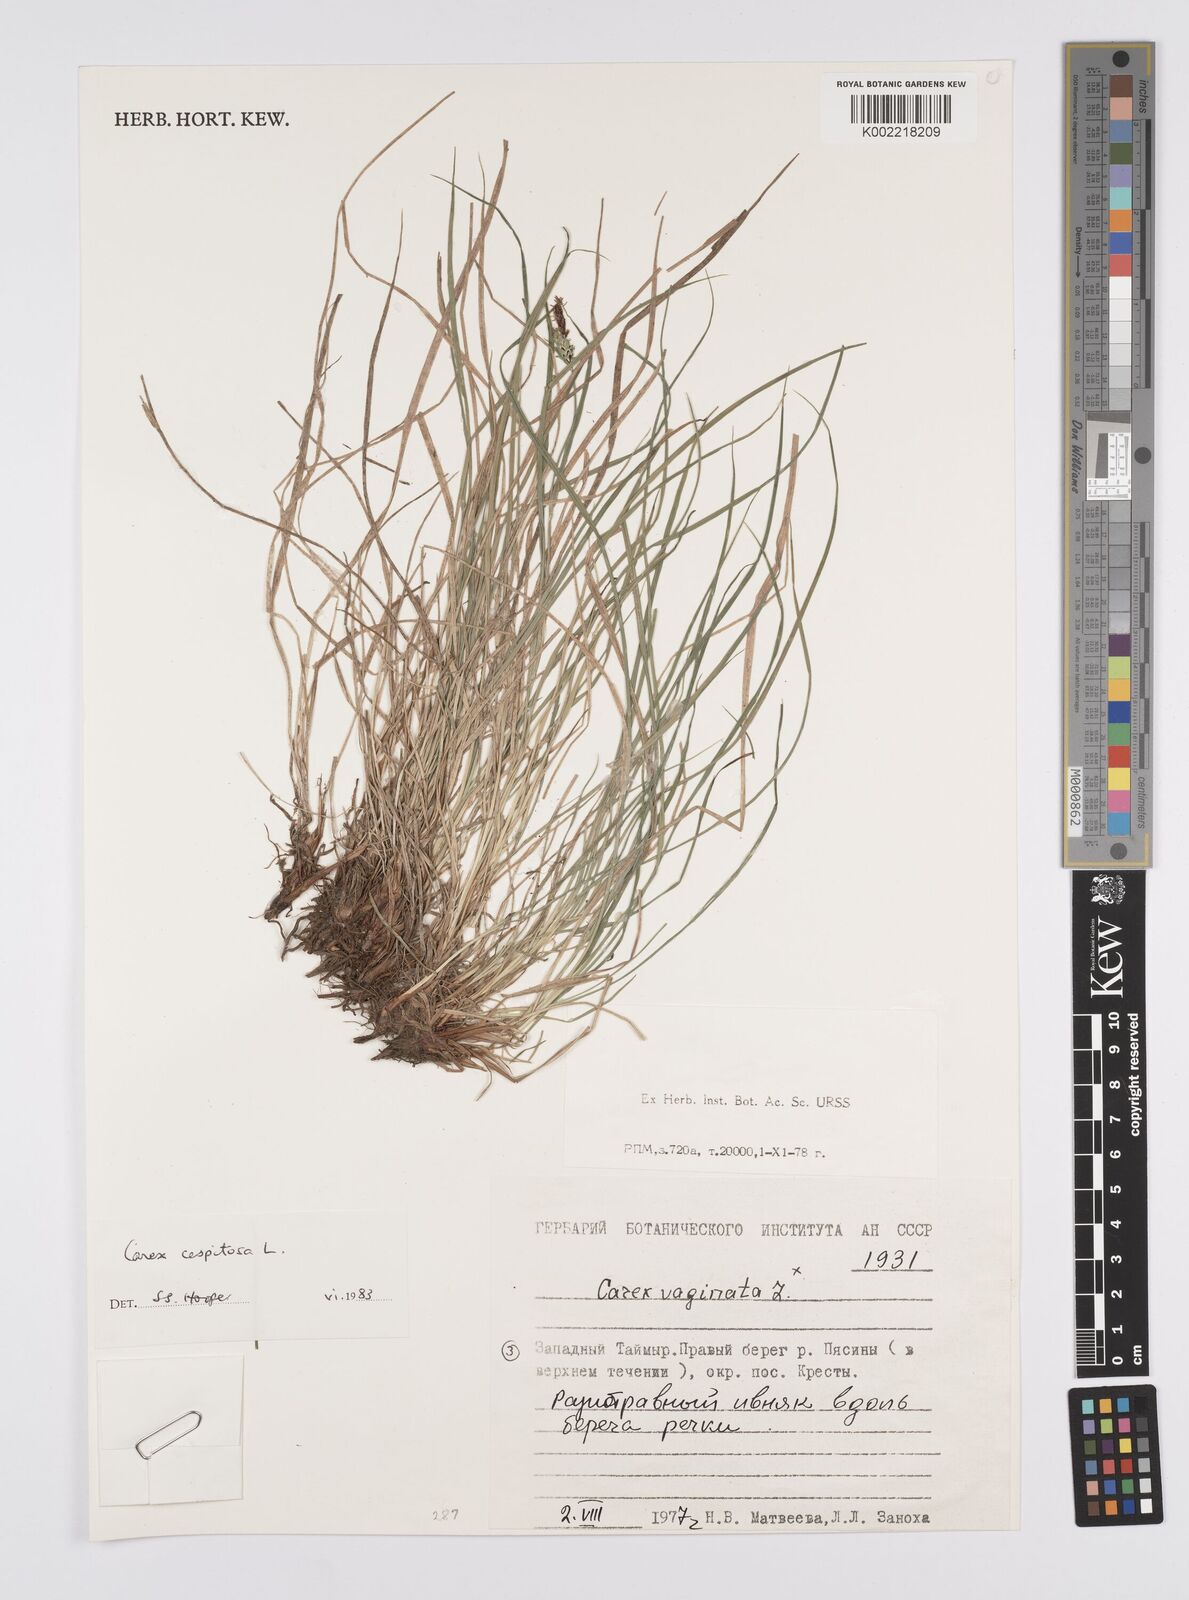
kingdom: Plantae
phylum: Tracheophyta
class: Liliopsida
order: Poales
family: Cyperaceae
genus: Carex
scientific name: Carex
